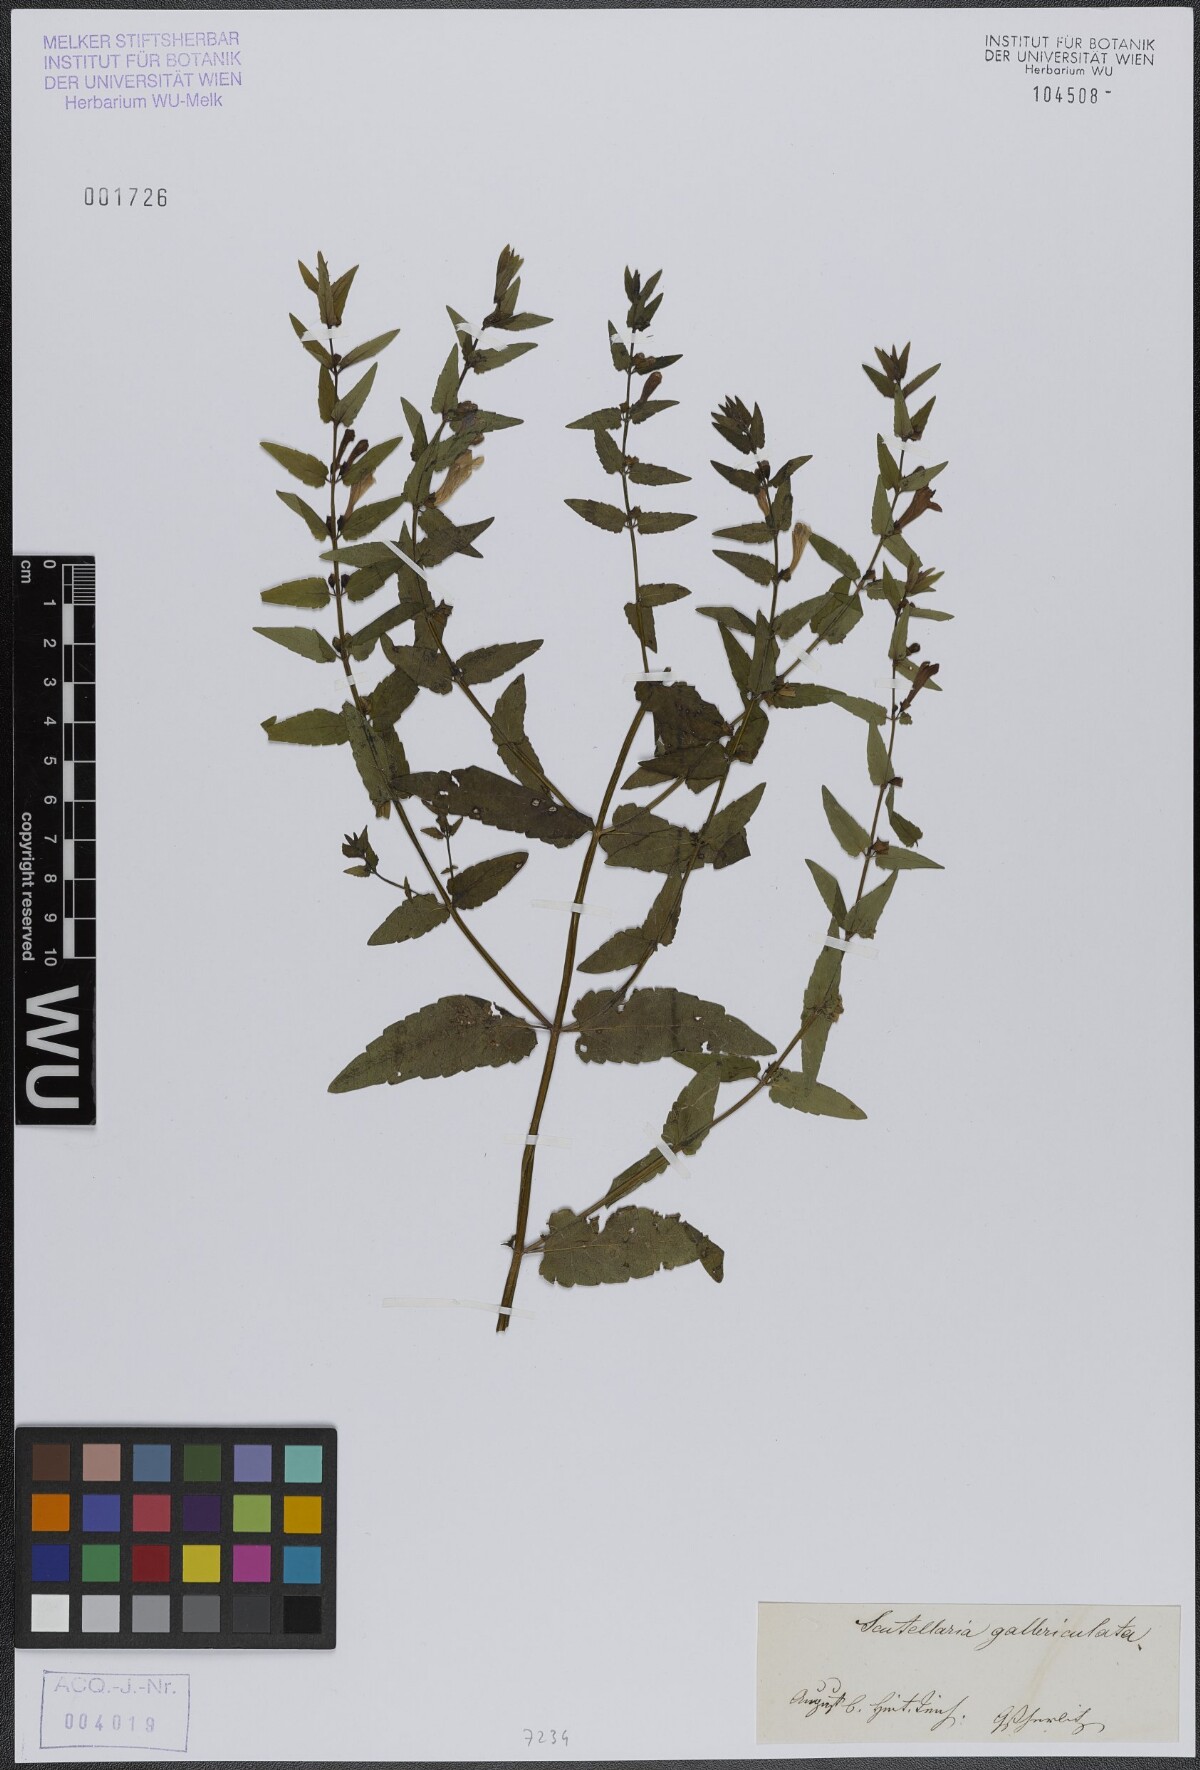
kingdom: Plantae
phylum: Tracheophyta
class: Magnoliopsida
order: Lamiales
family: Lamiaceae
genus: Scutellaria
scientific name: Scutellaria galericulata
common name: Skullcap
